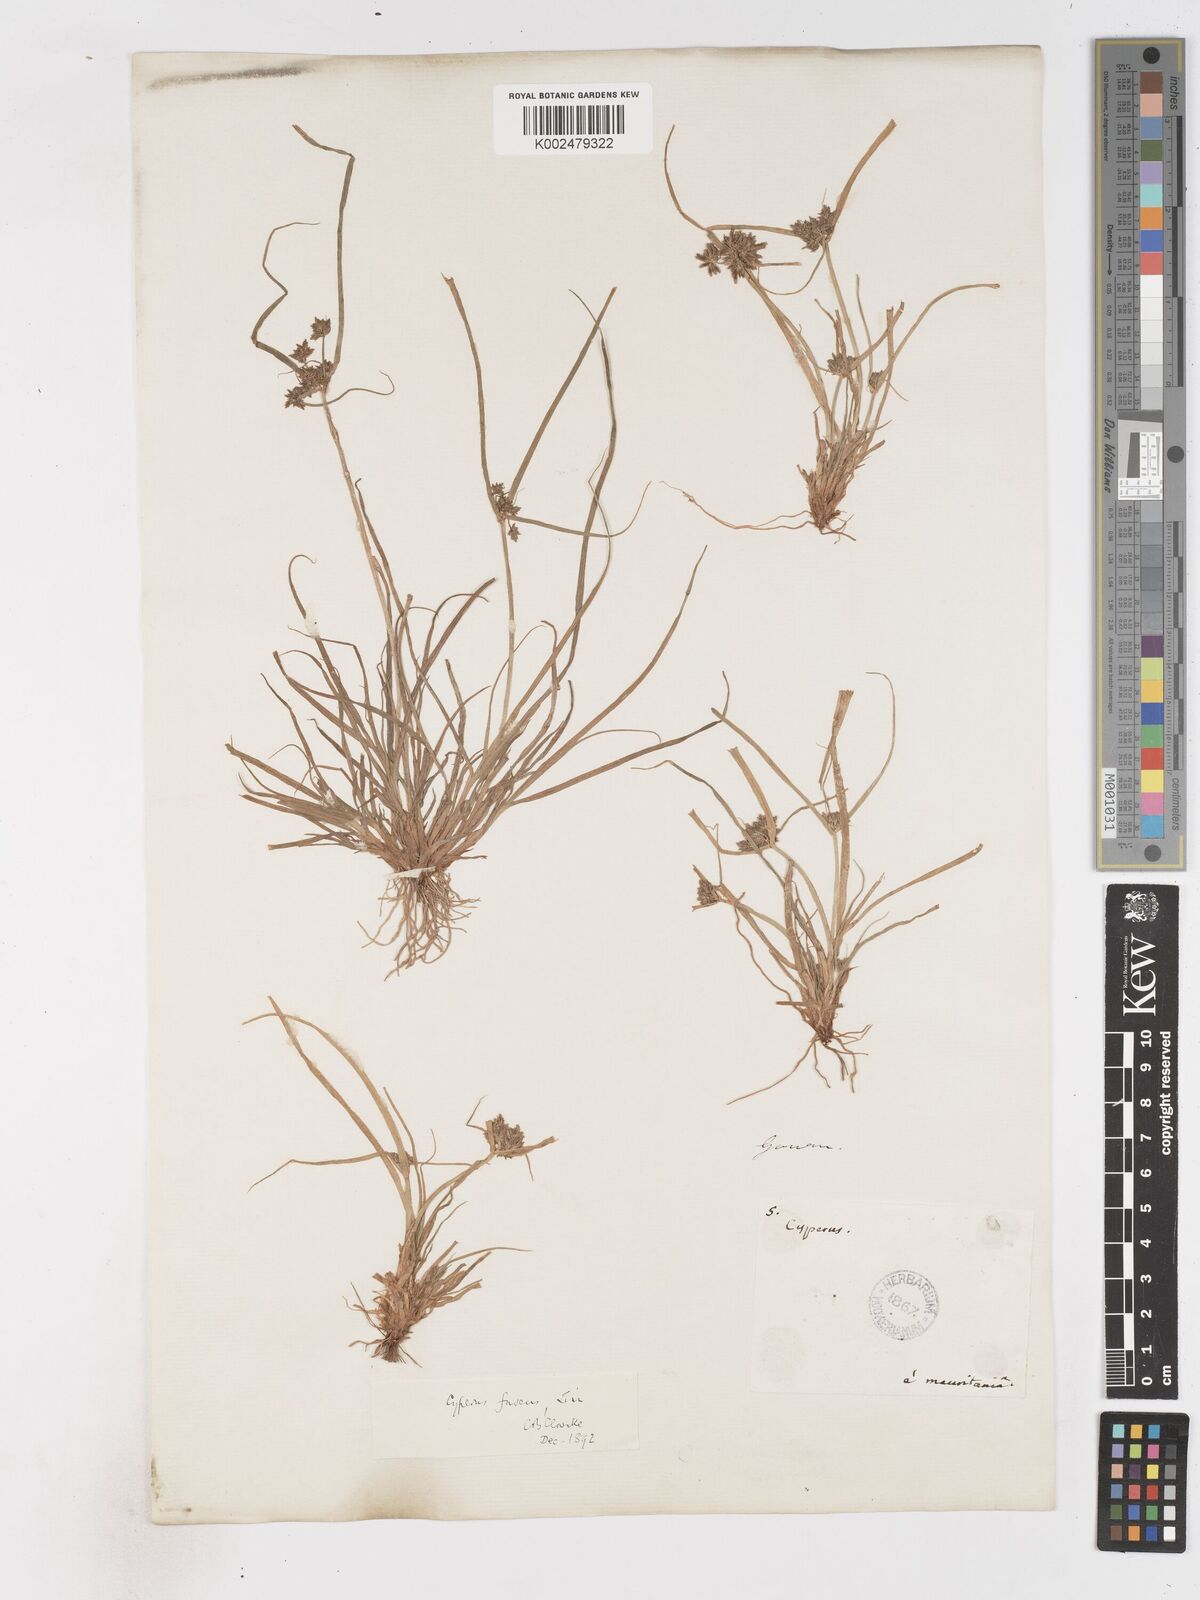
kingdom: Plantae
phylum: Tracheophyta
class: Liliopsida
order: Poales
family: Cyperaceae
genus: Cyperus
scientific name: Cyperus fuscus
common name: Brown galingale
